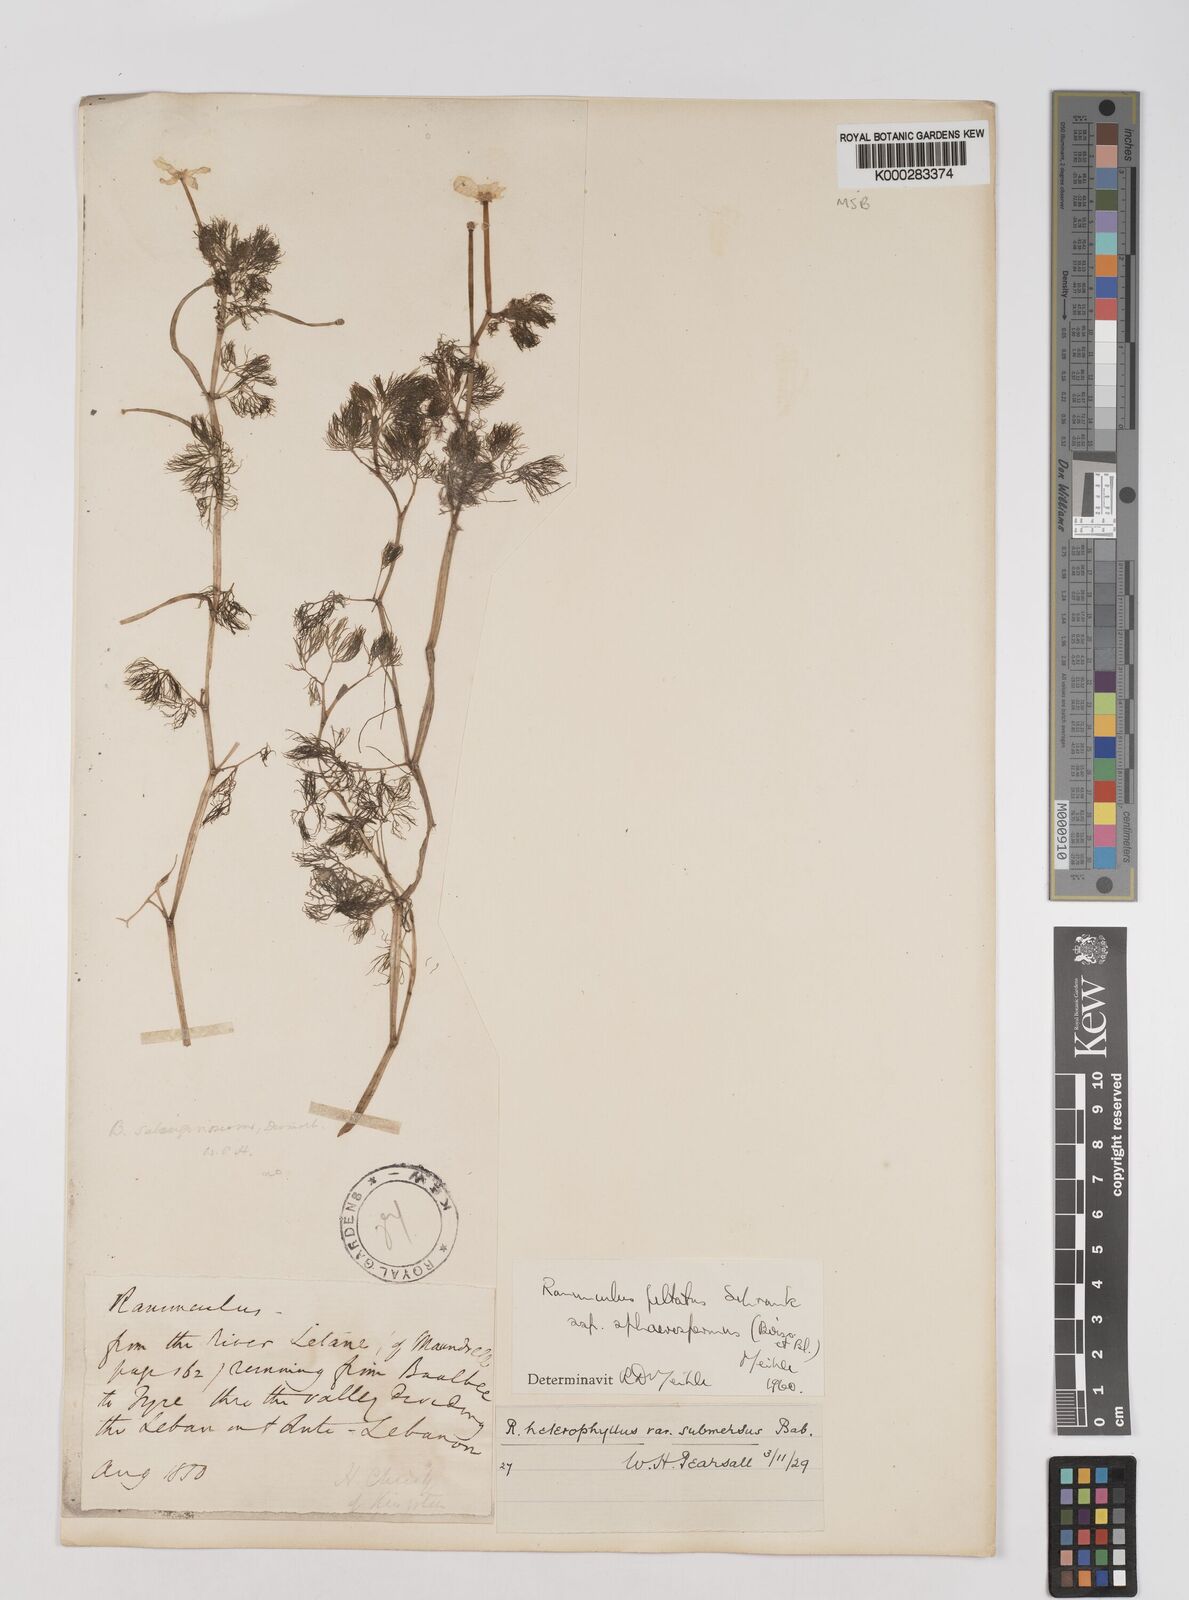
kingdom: Plantae
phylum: Tracheophyta
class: Magnoliopsida
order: Ranunculales
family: Ranunculaceae
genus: Ranunculus
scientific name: Ranunculus peltatus
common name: Pond water-crowfoot
